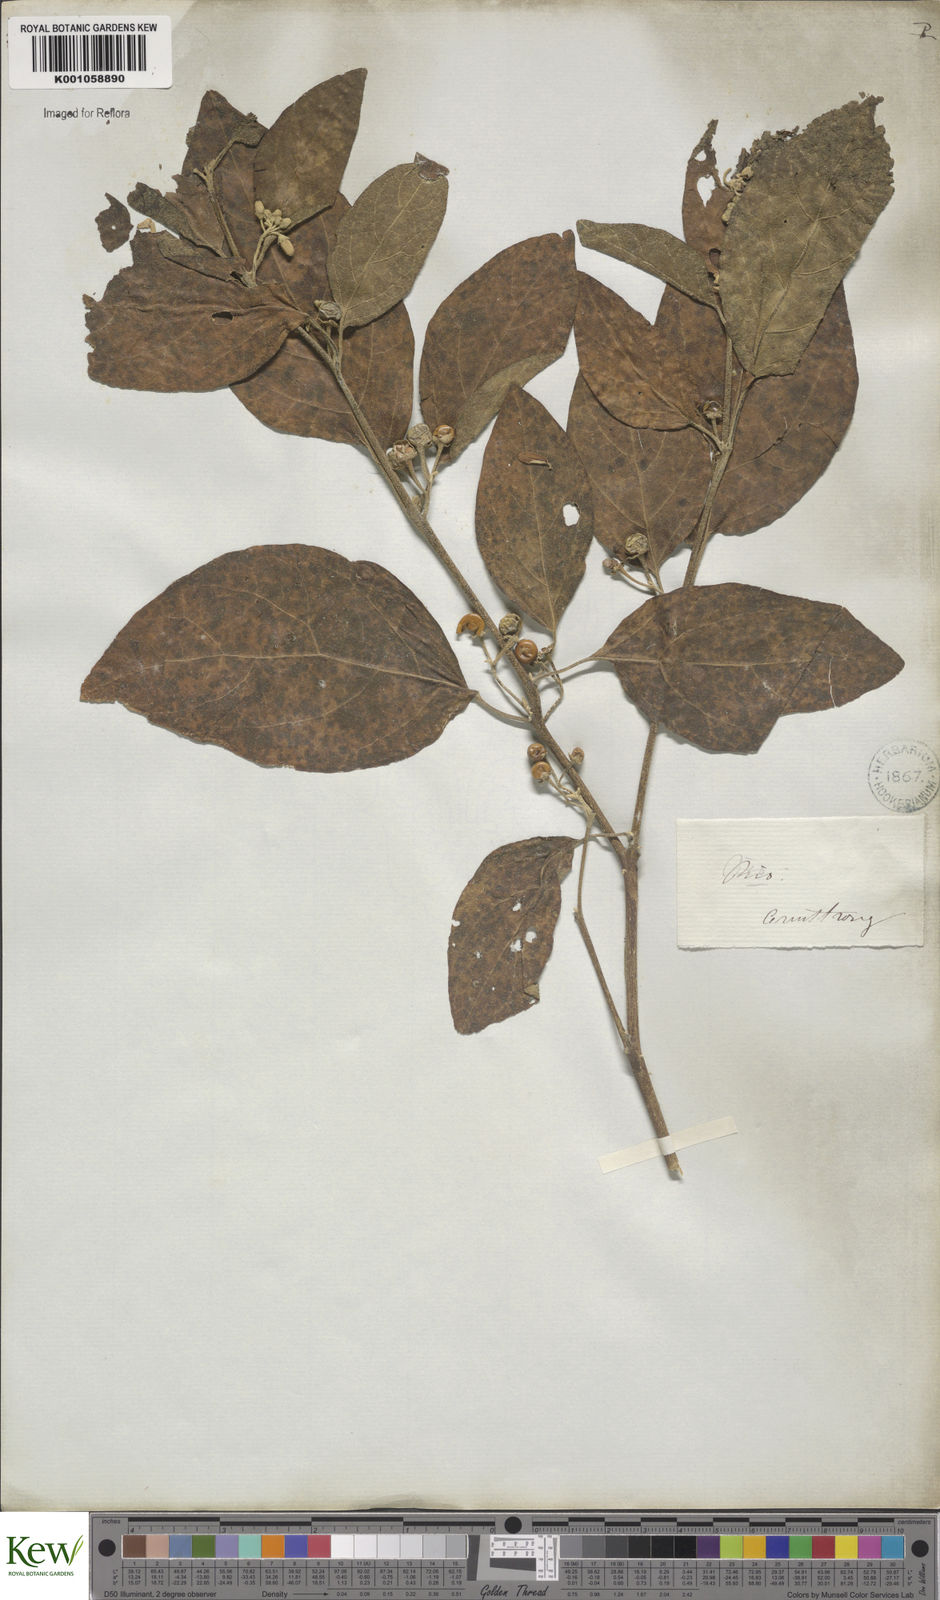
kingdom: Plantae
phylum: Tracheophyta
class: Magnoliopsida
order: Solanales
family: Solanaceae
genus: Solanum
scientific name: Solanum cinnamomeum
